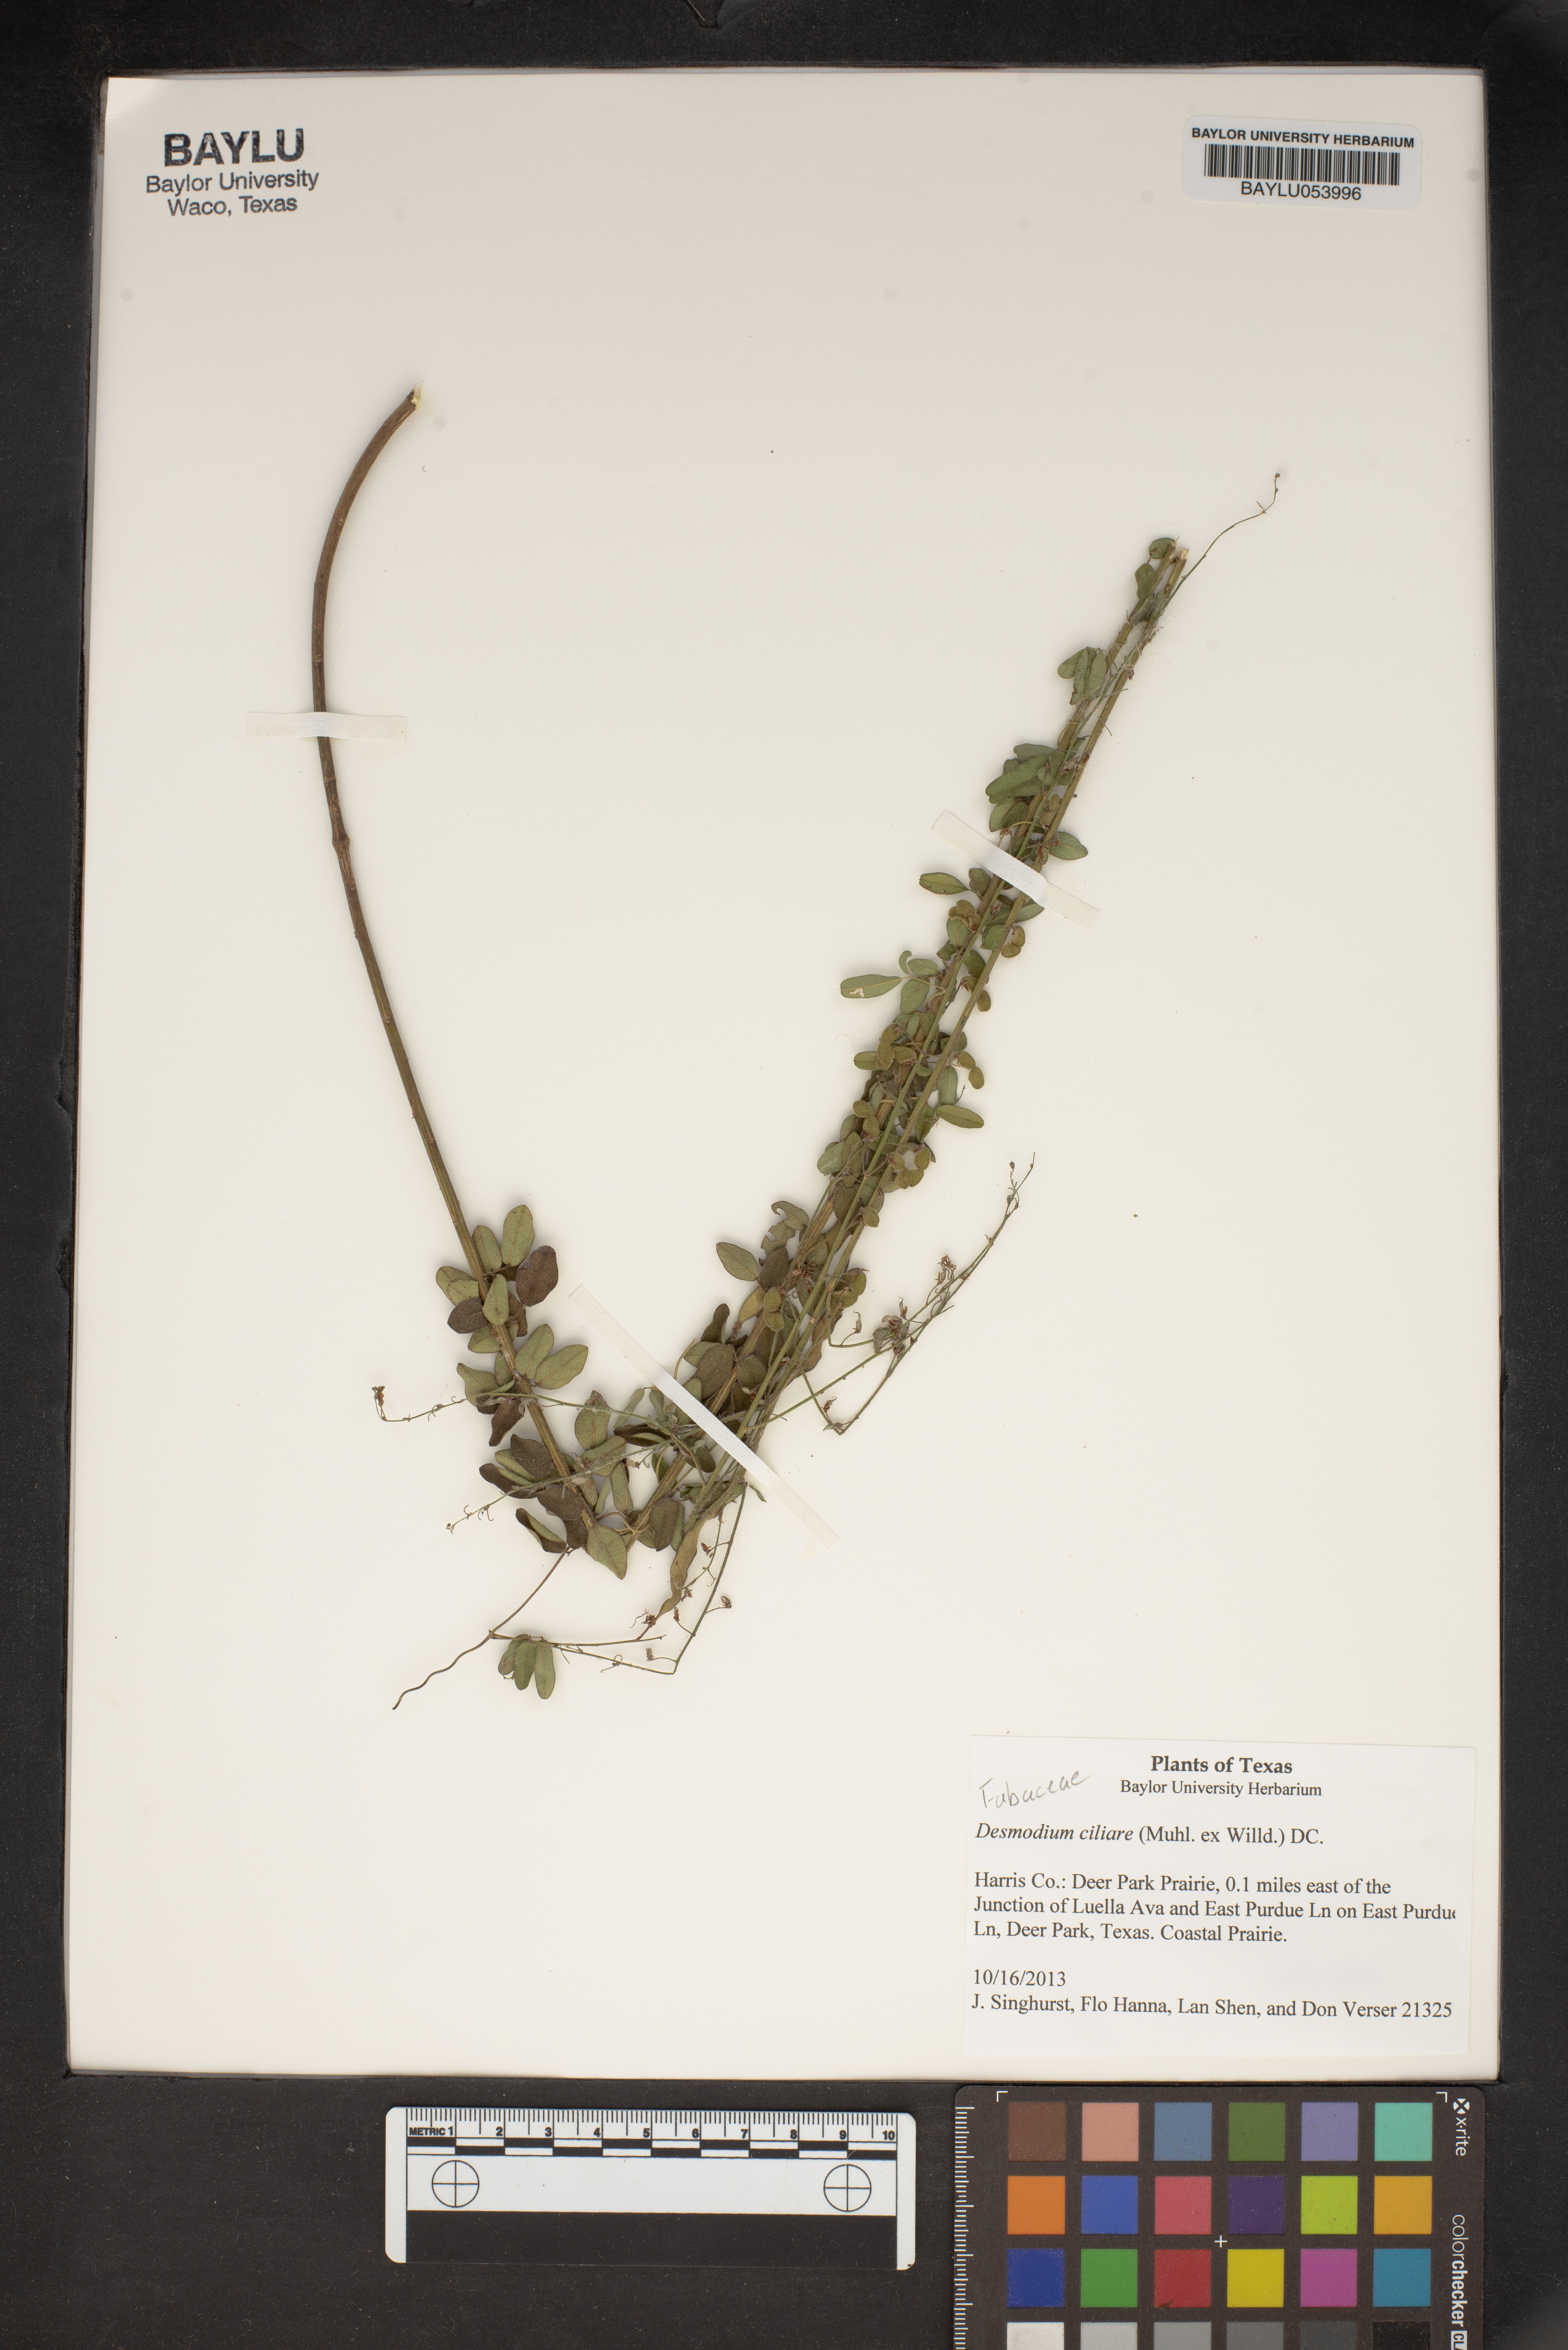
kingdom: Plantae
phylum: Tracheophyta
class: Magnoliopsida
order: Fabales
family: Fabaceae
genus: Desmodium
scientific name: Desmodium ciliare
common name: Hairy small-leaf ticktrefoil
